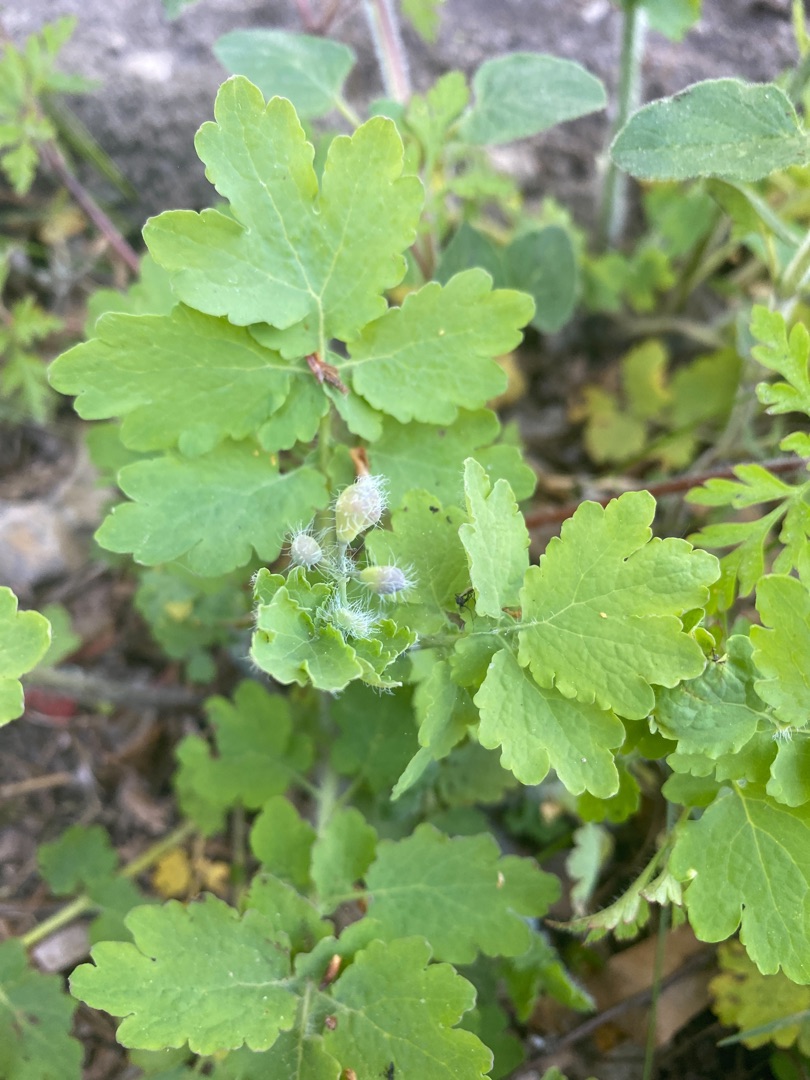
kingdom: Plantae
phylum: Tracheophyta
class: Magnoliopsida
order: Ranunculales
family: Papaveraceae
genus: Chelidonium
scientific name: Chelidonium majus
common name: Svaleurt
